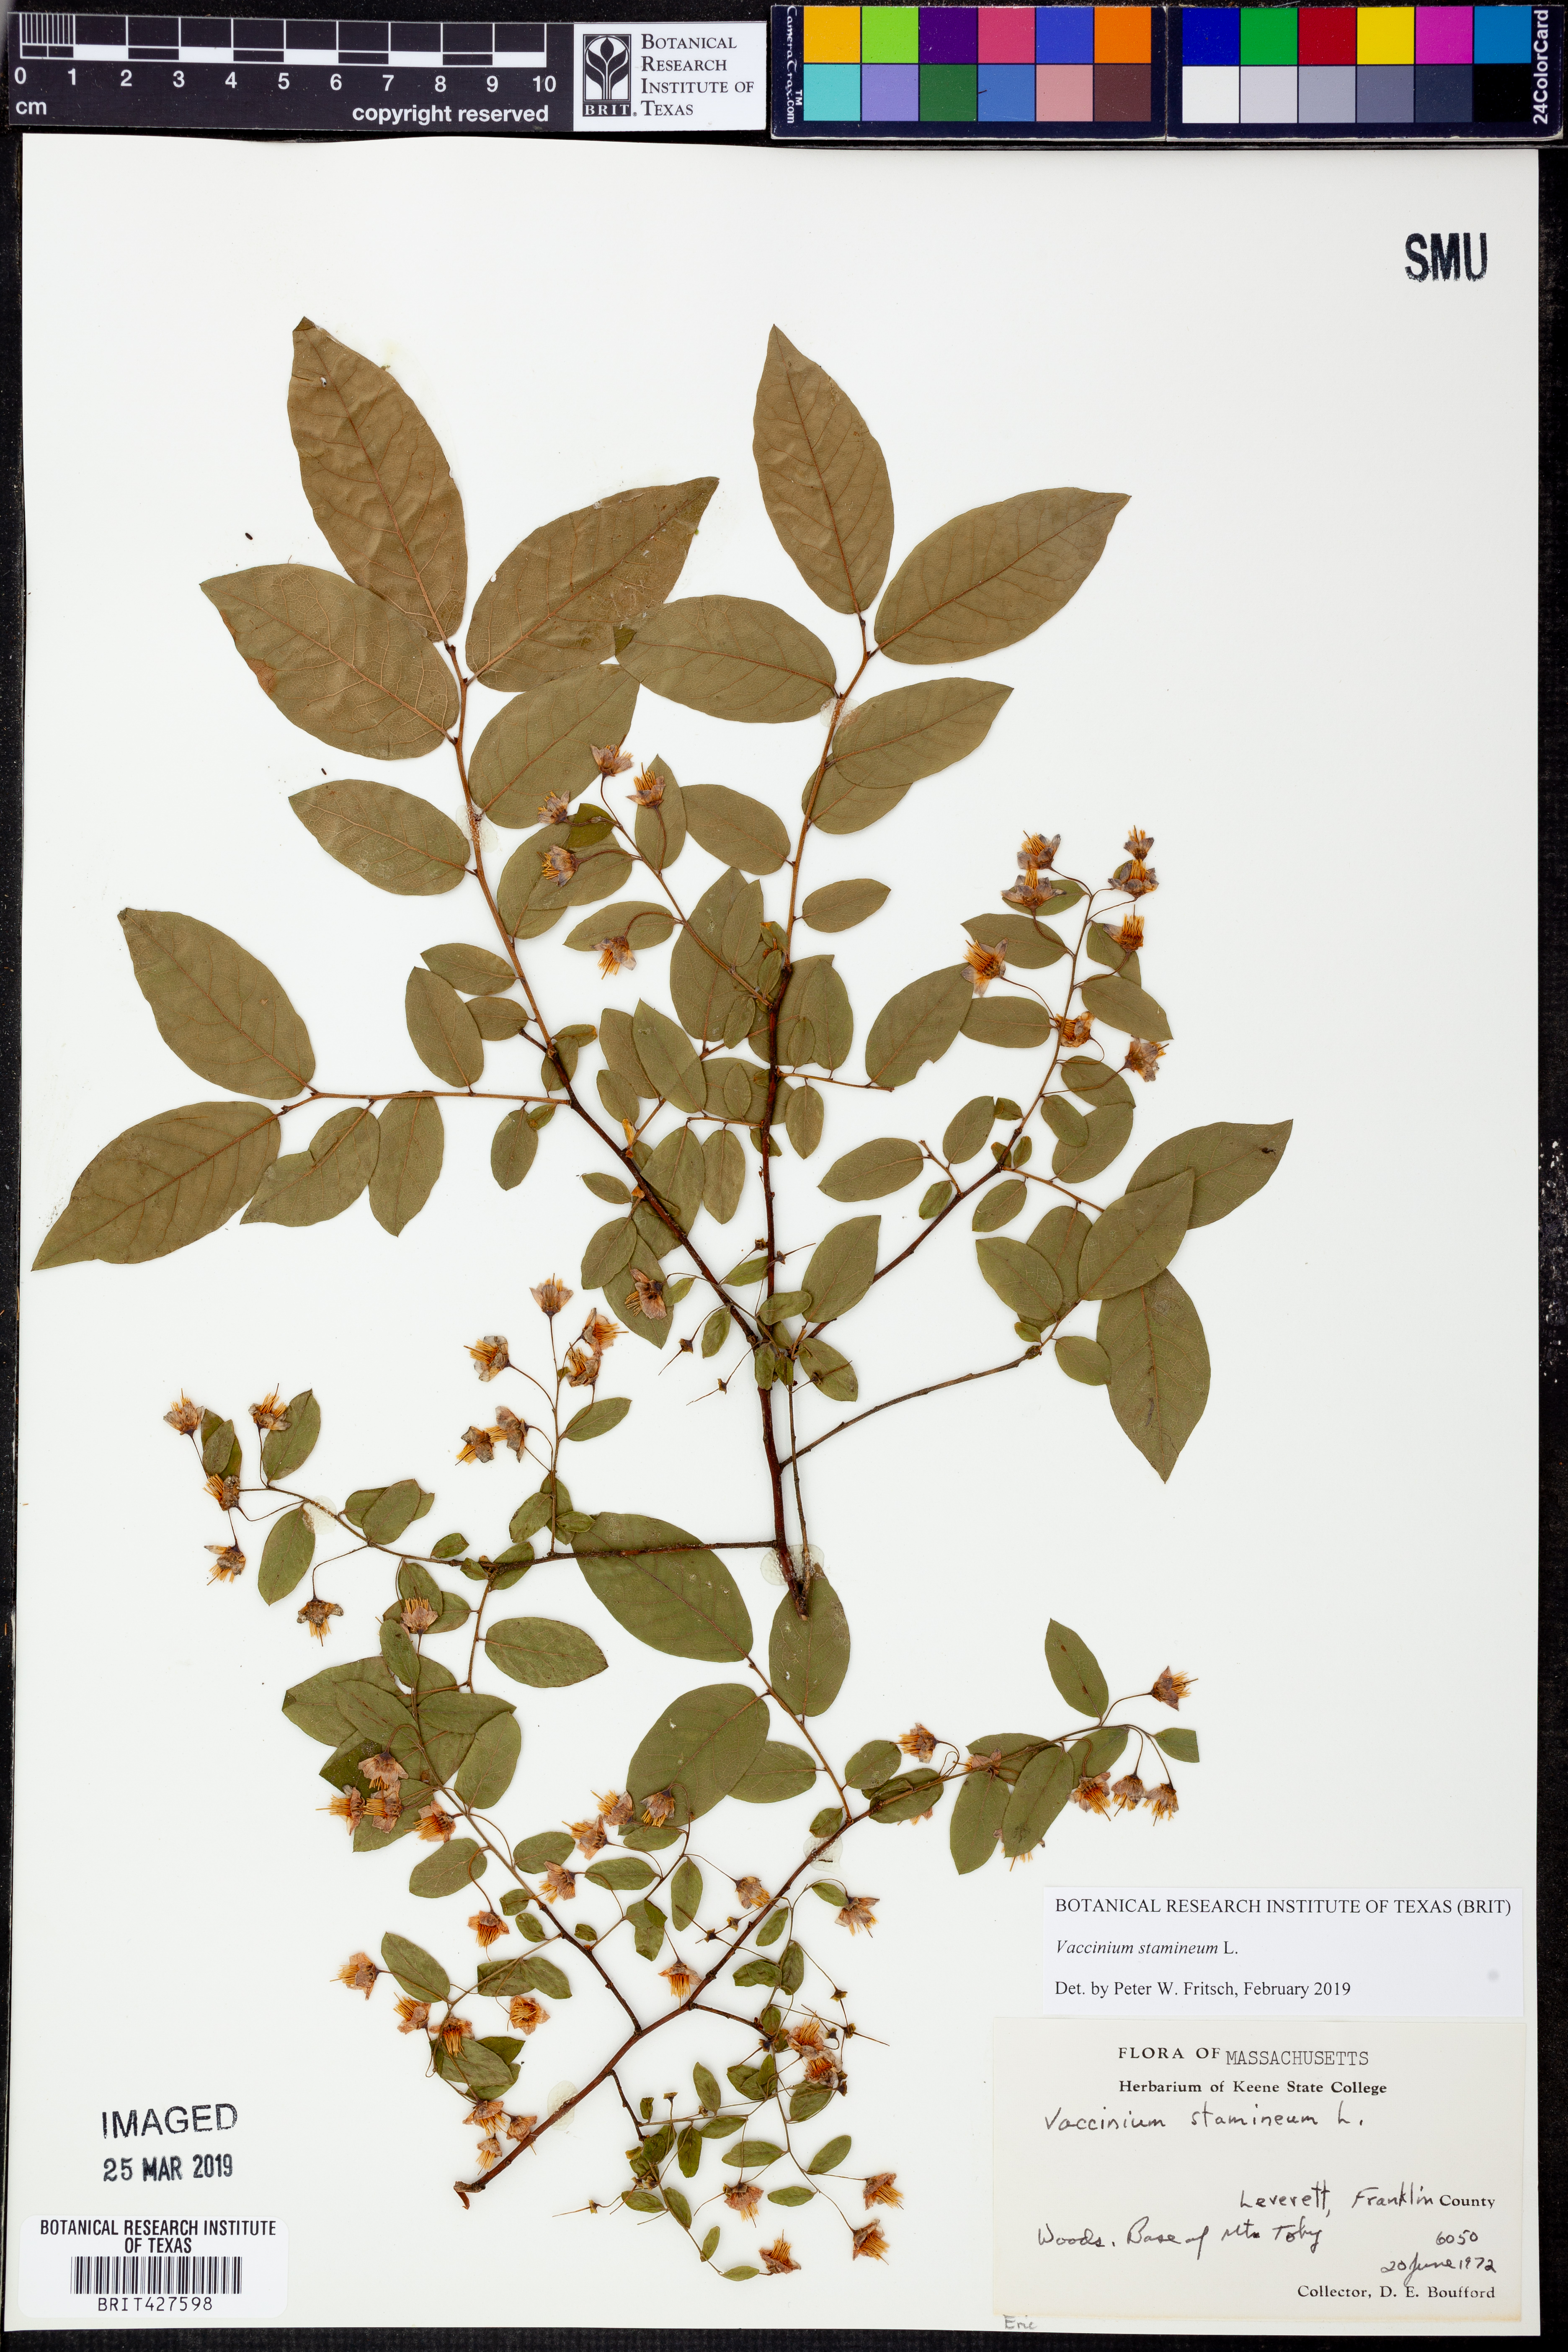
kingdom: Plantae
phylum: Tracheophyta
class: Magnoliopsida
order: Ericales
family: Ericaceae
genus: Vaccinium
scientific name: Vaccinium stamineum
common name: Deerberry
